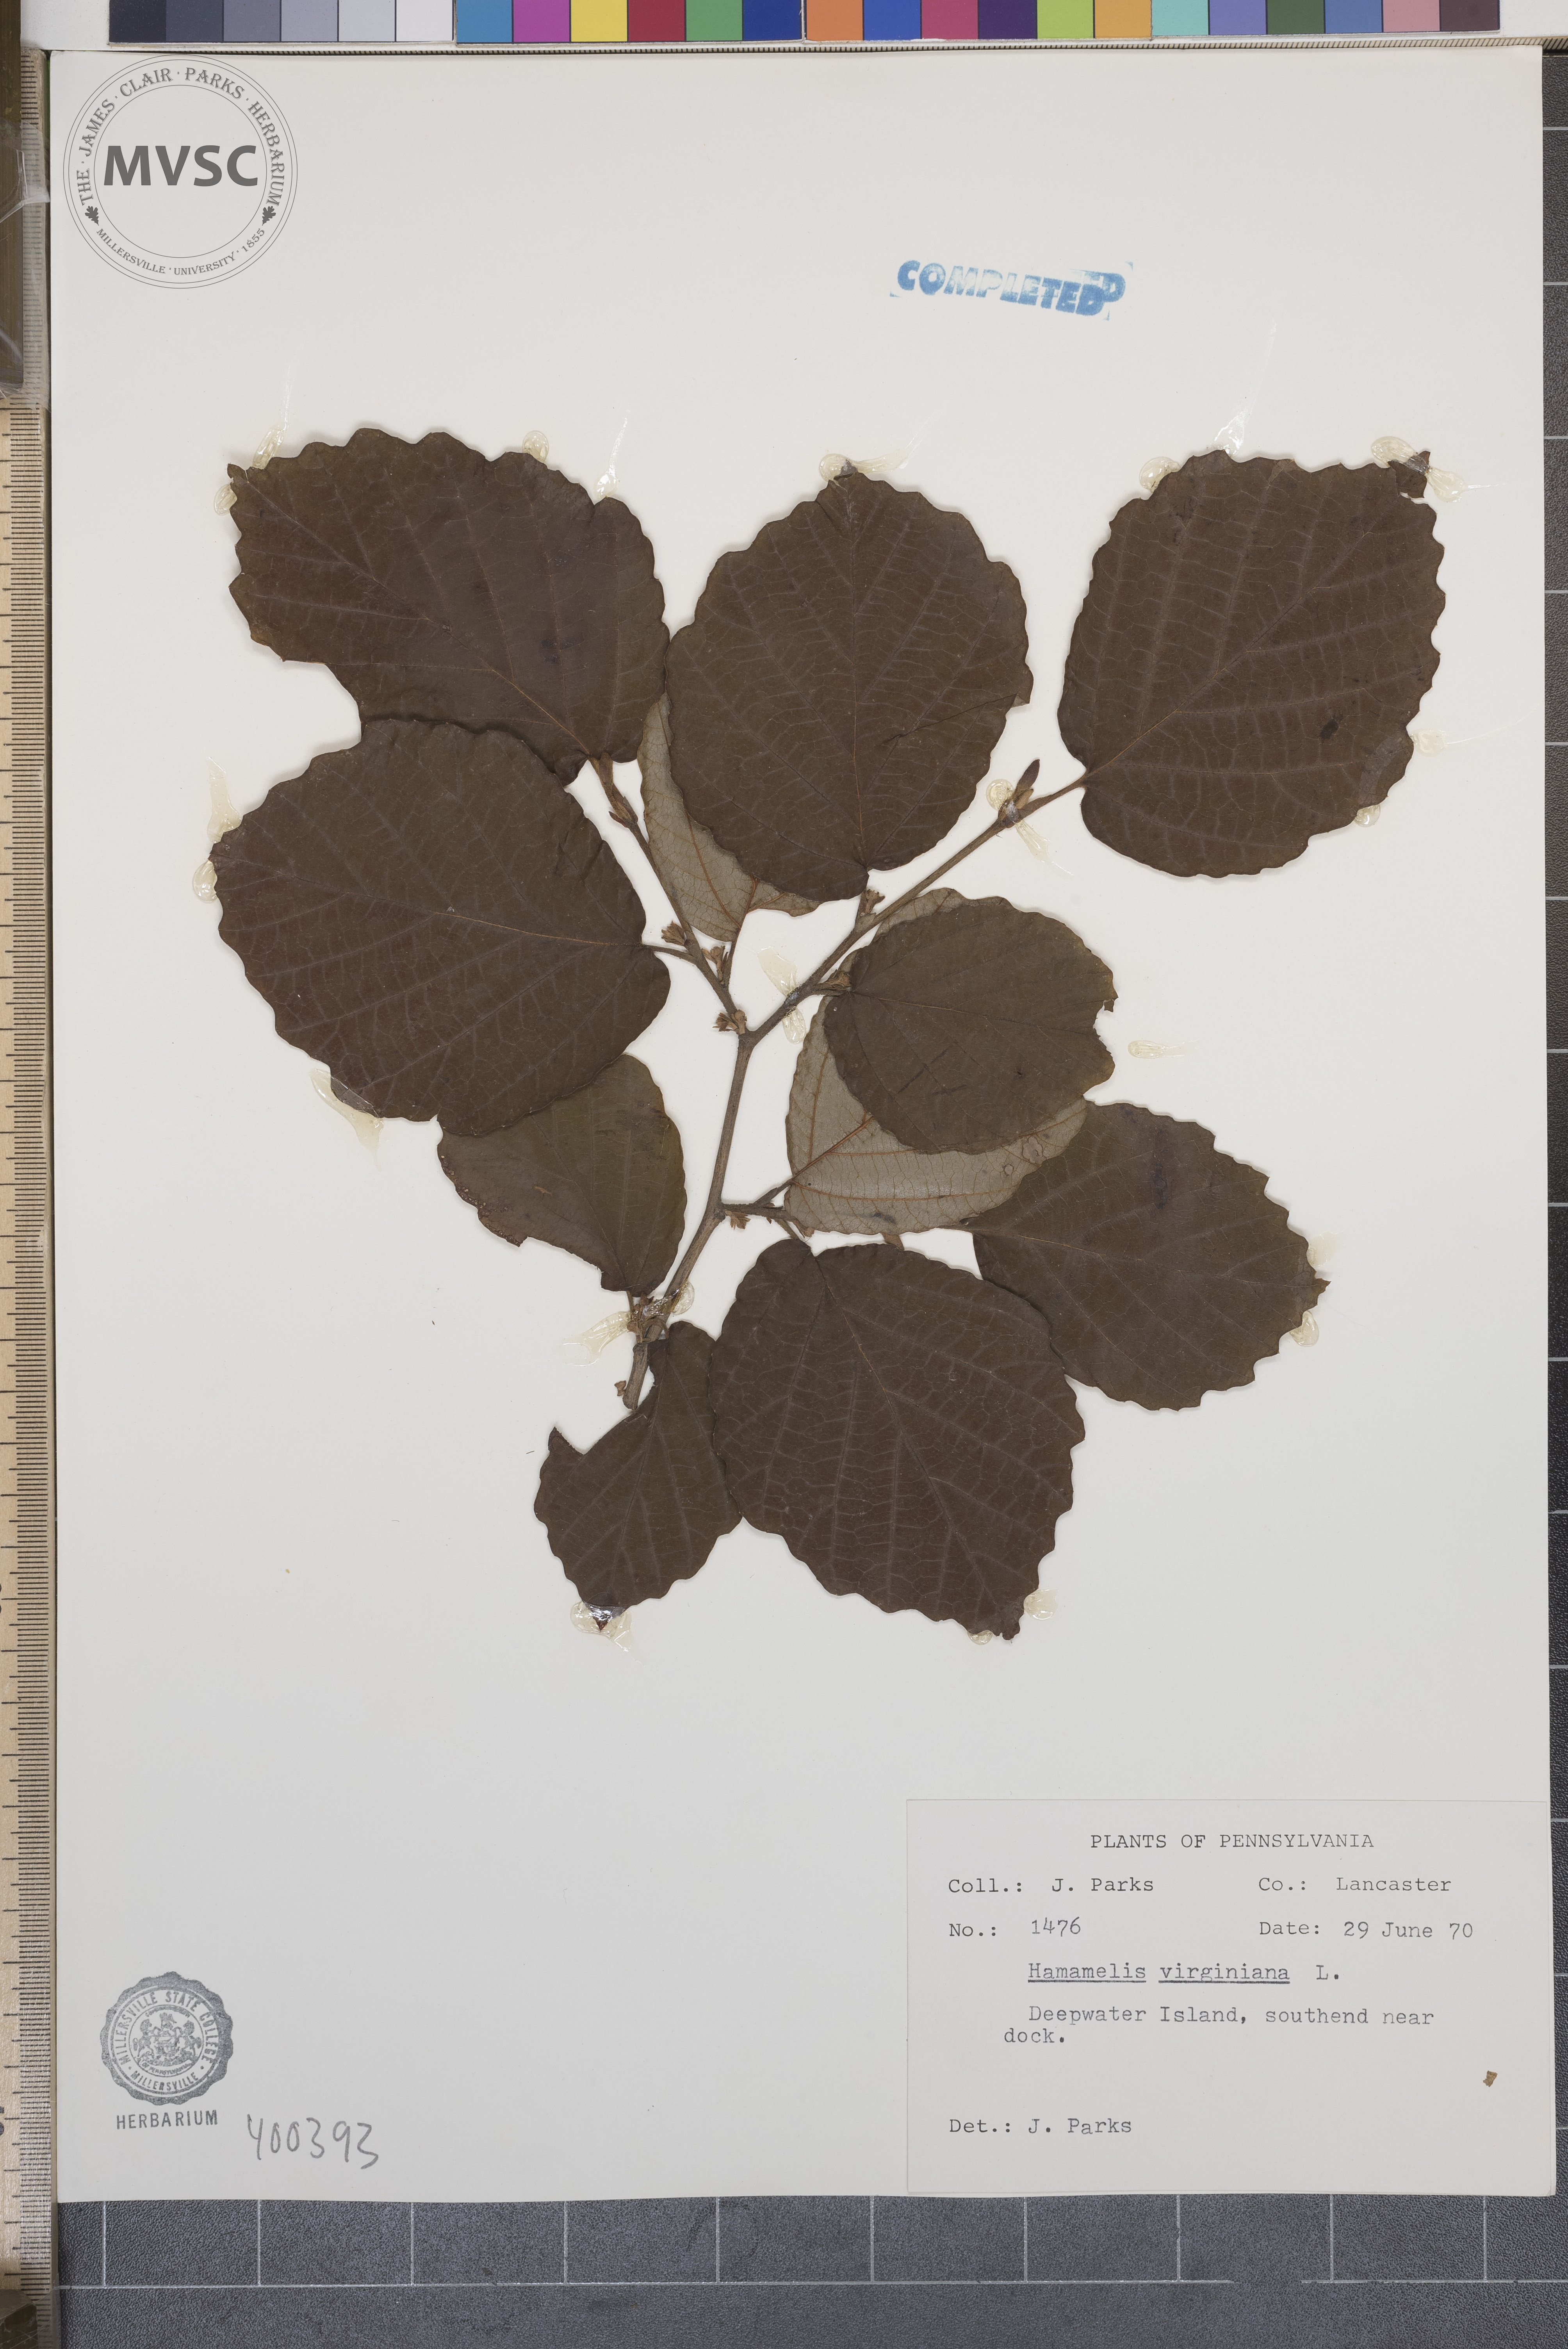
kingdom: Plantae
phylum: Tracheophyta
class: Magnoliopsida
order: Saxifragales
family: Hamamelidaceae
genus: Hamamelis
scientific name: Hamamelis virginiana
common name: witch-hazel
